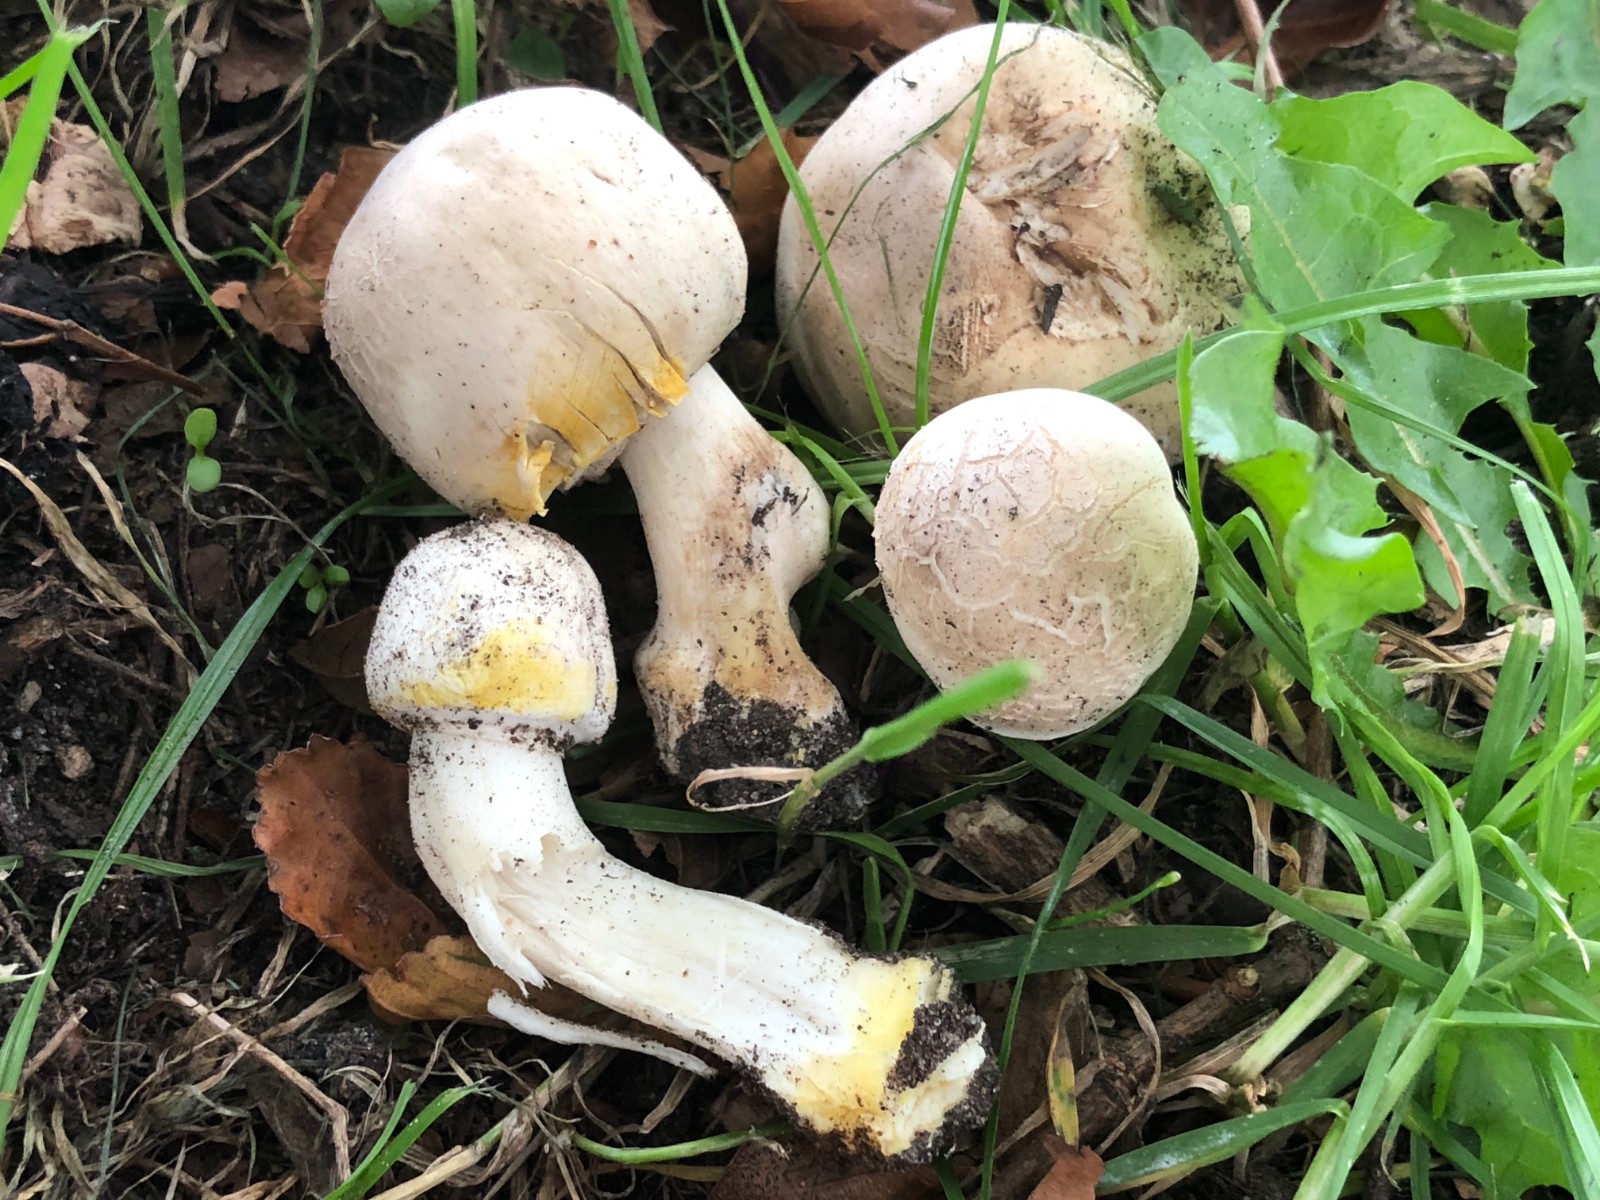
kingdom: Fungi
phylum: Basidiomycota
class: Agaricomycetes
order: Agaricales
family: Agaricaceae
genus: Agaricus
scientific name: Agaricus xanthodermus
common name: karbol-champignon
